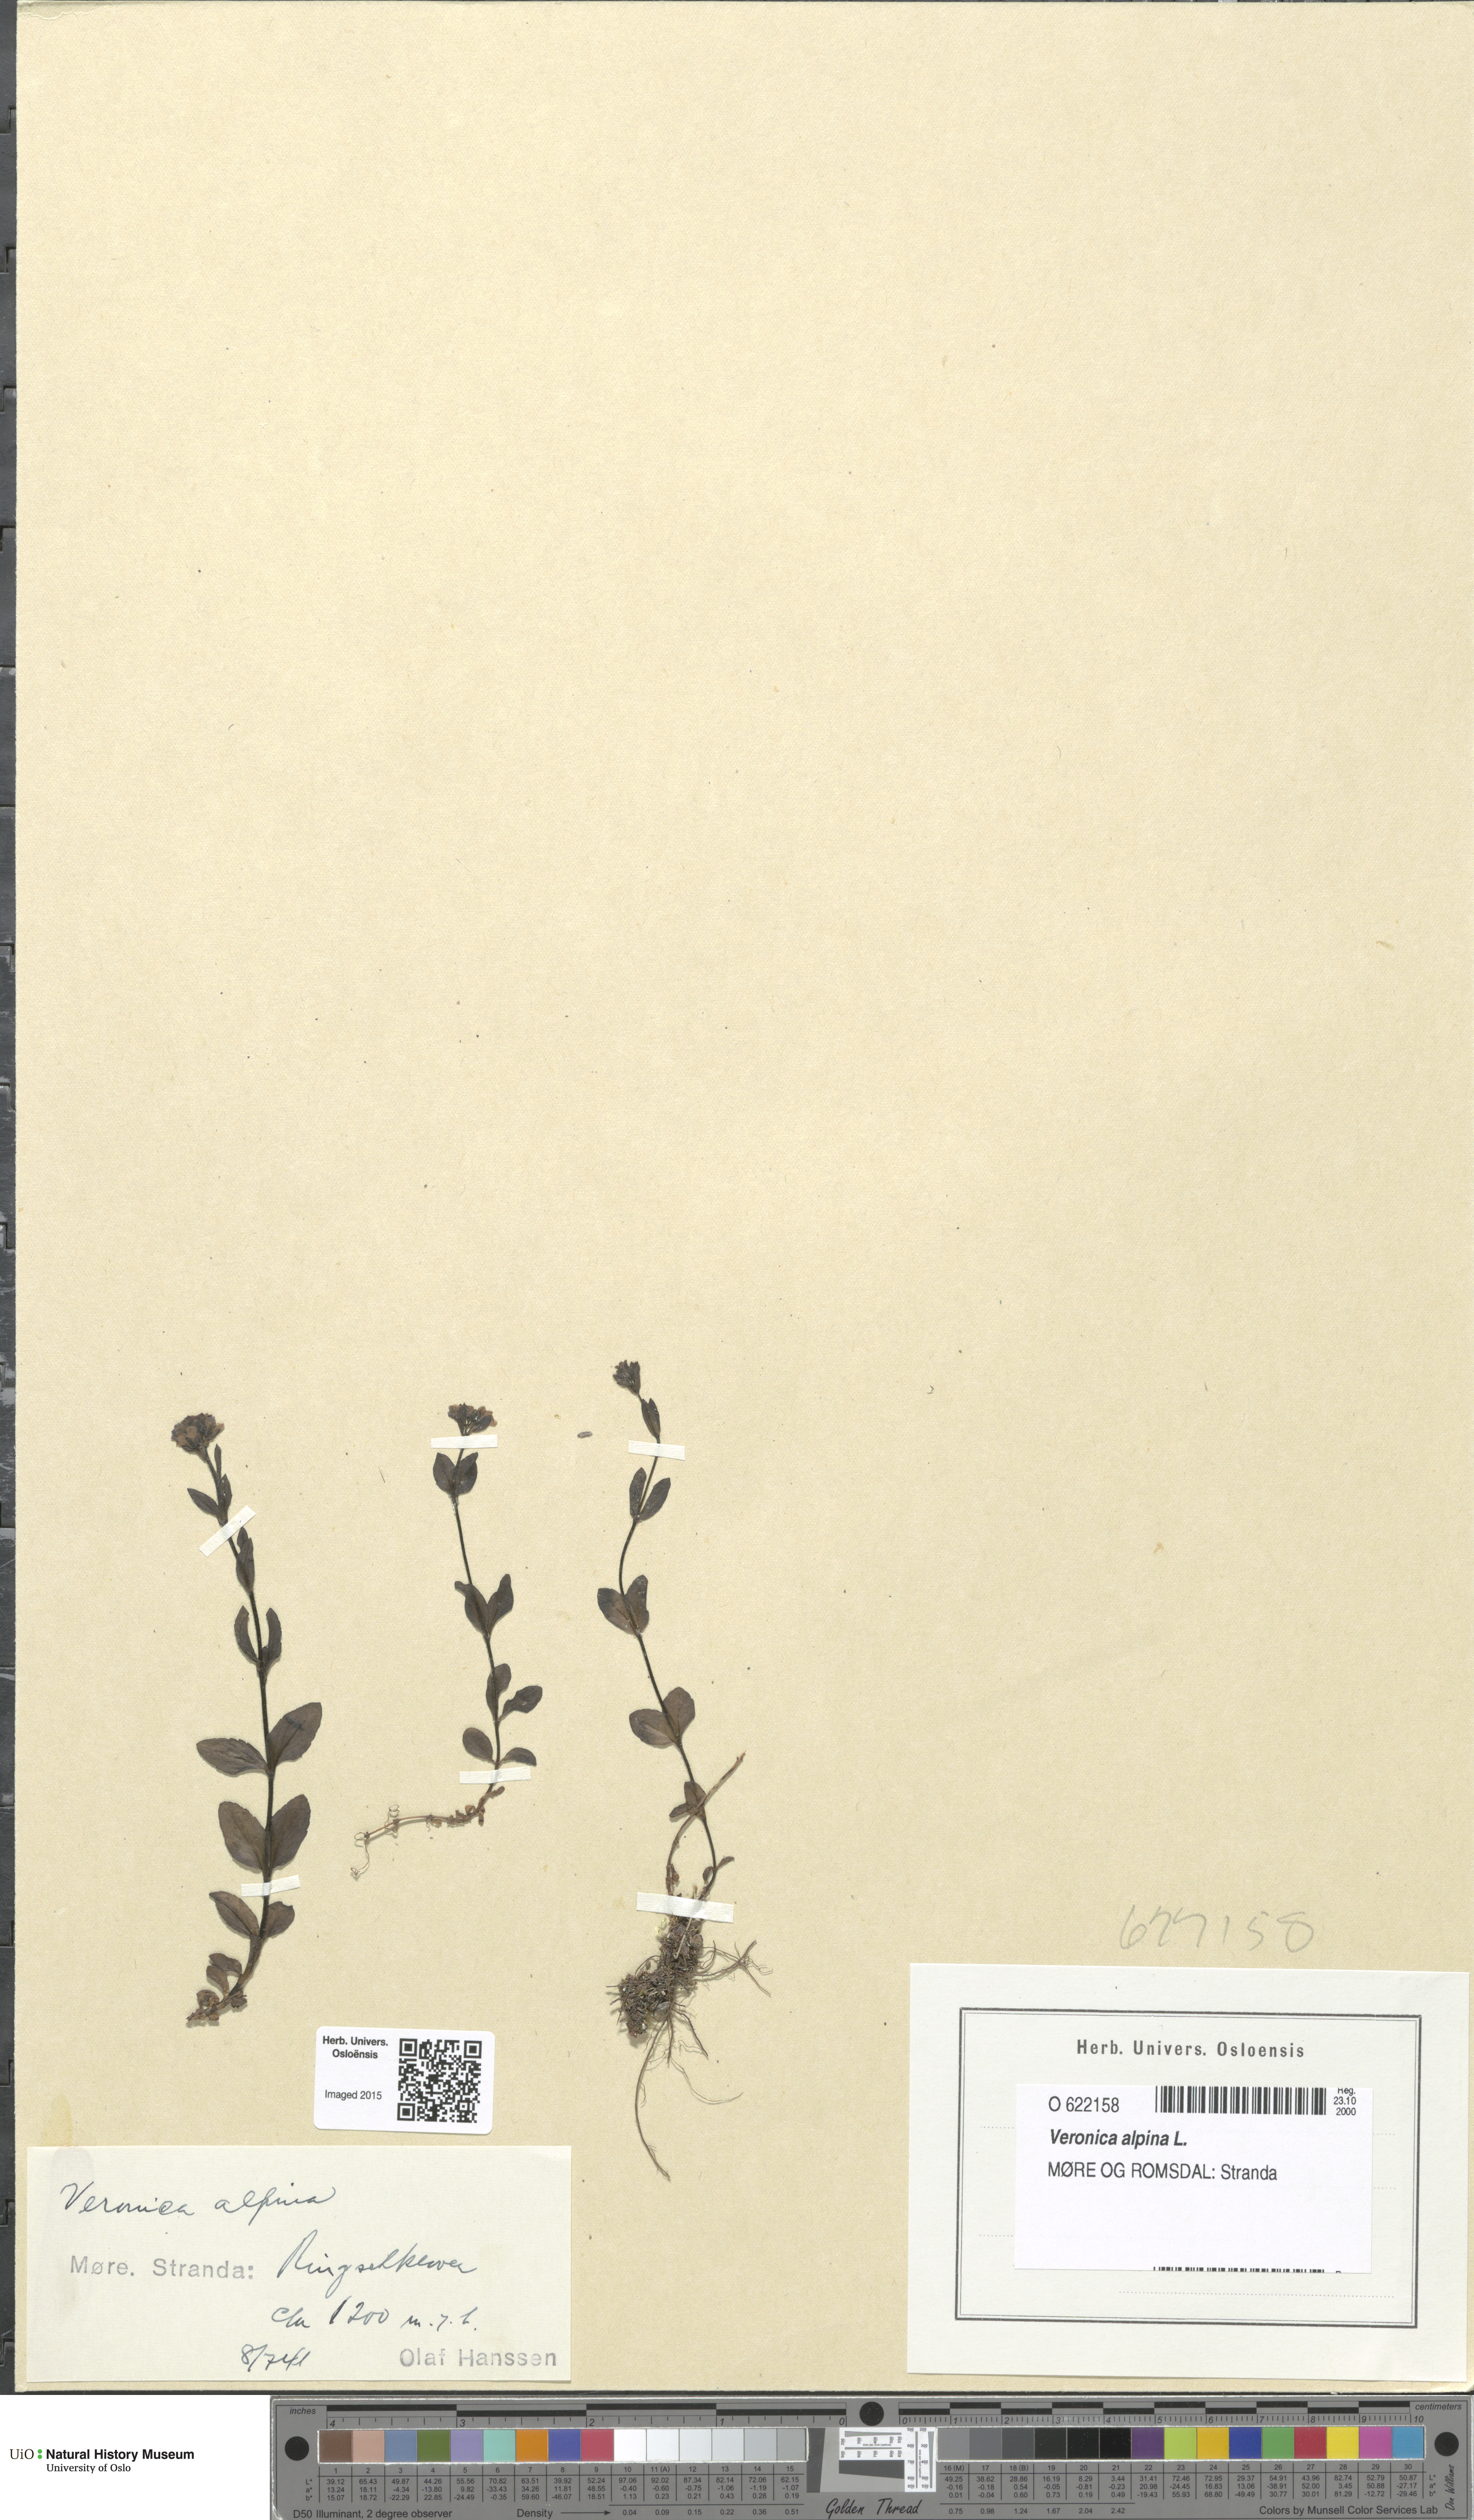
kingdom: Plantae
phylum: Tracheophyta
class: Magnoliopsida
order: Lamiales
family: Plantaginaceae
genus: Veronica
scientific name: Veronica alpina
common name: Alpine speedwell
